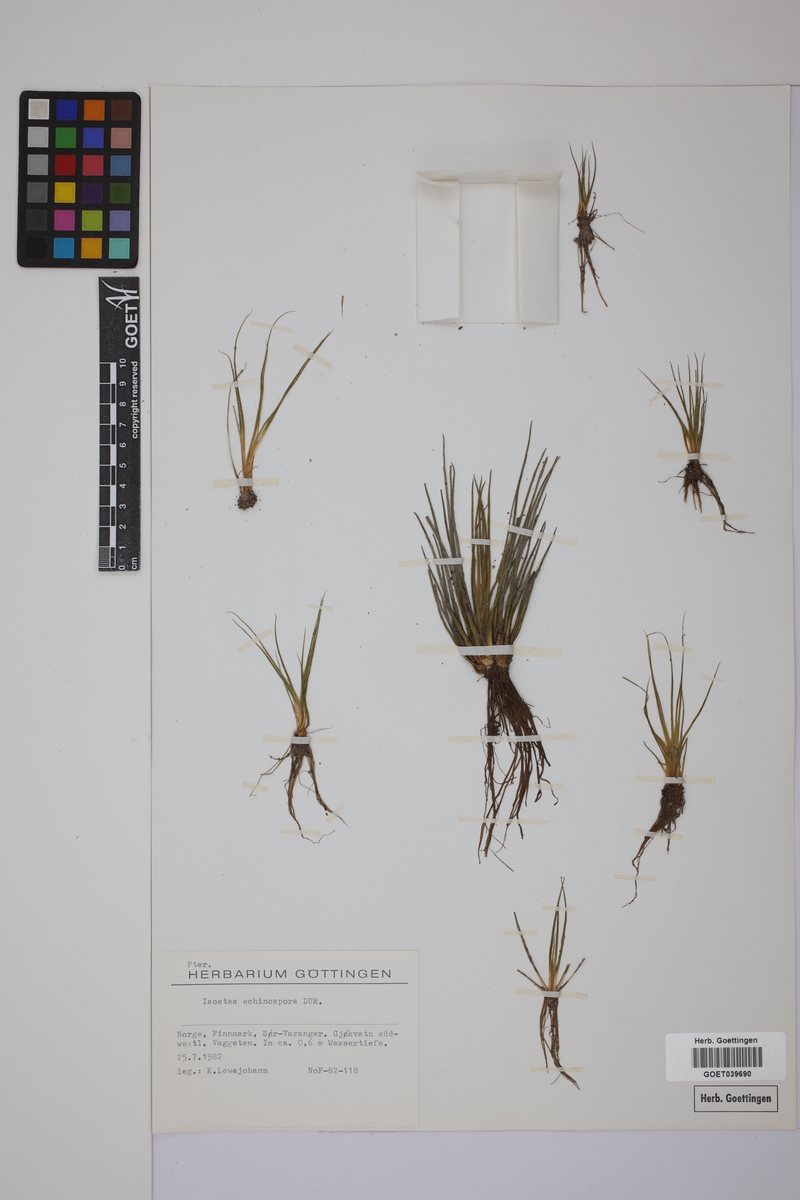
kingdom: Plantae
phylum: Tracheophyta
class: Lycopodiopsida
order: Isoetales
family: Isoetaceae
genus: Isoetes
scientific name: Isoetes echinospora
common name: Spring quillwort
